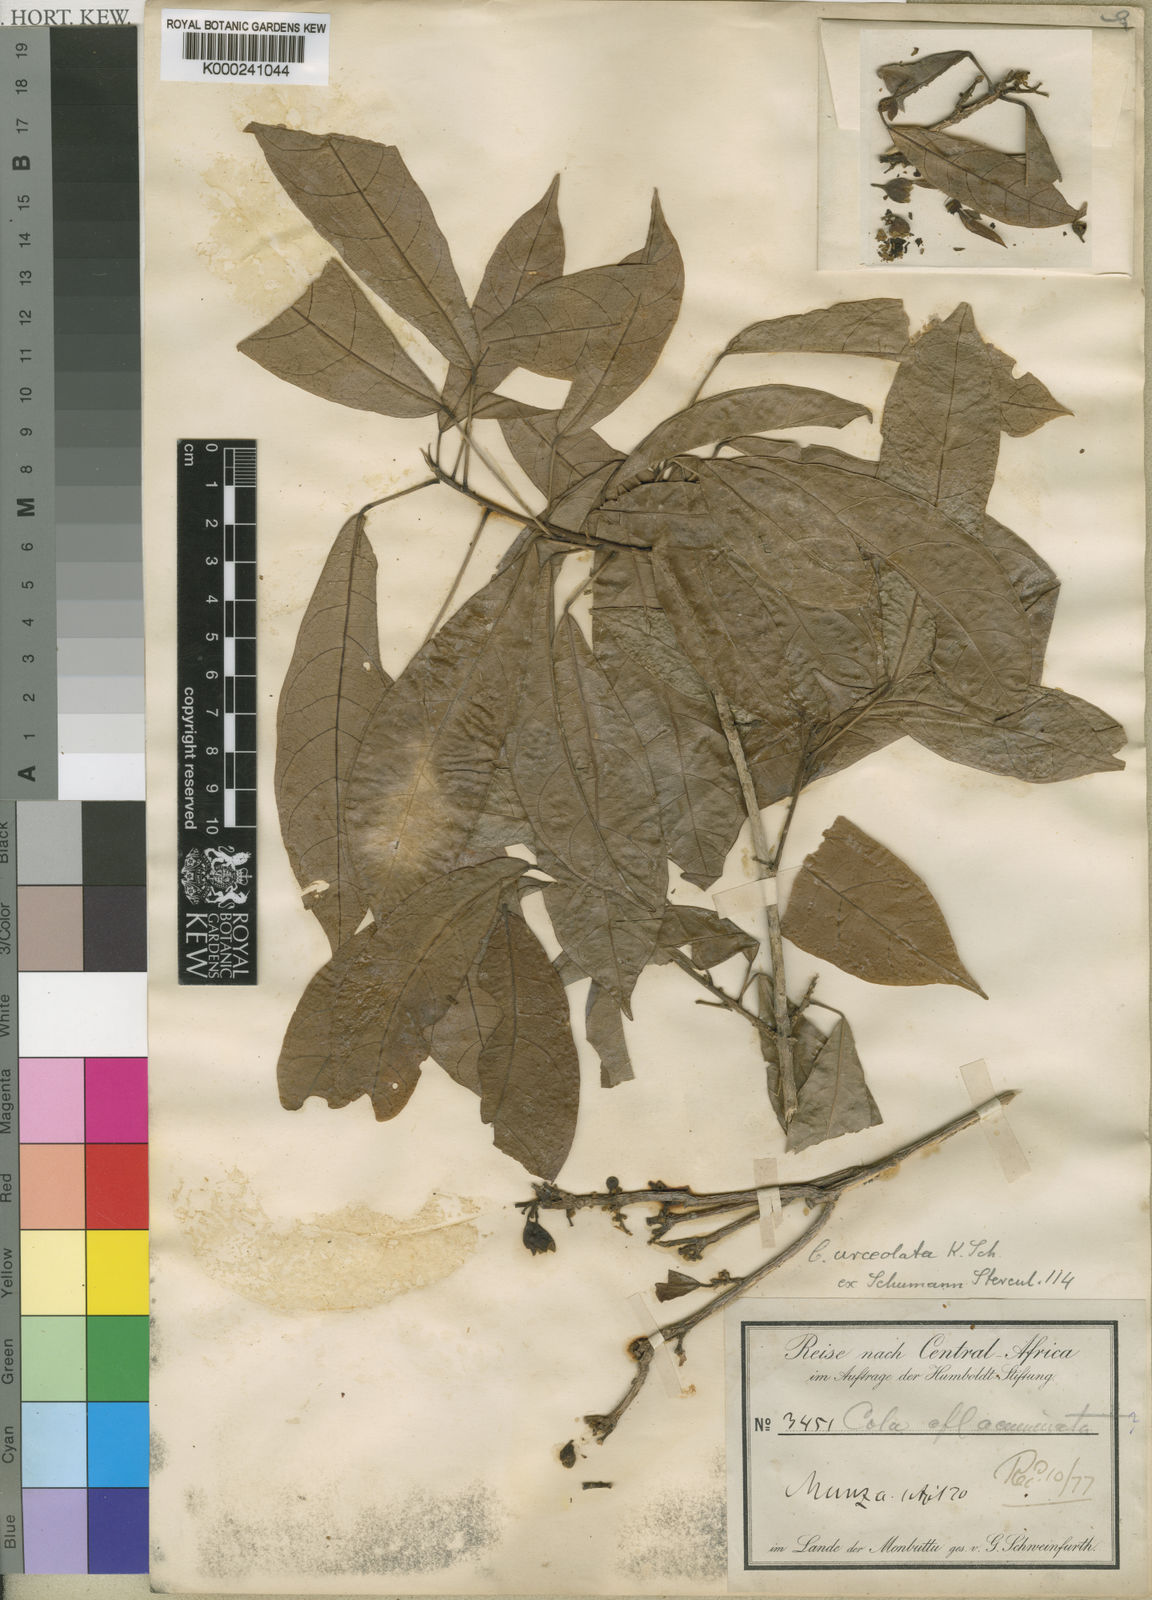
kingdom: Plantae
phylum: Tracheophyta
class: Magnoliopsida
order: Malvales
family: Malvaceae
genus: Cola
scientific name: Cola urceolata
